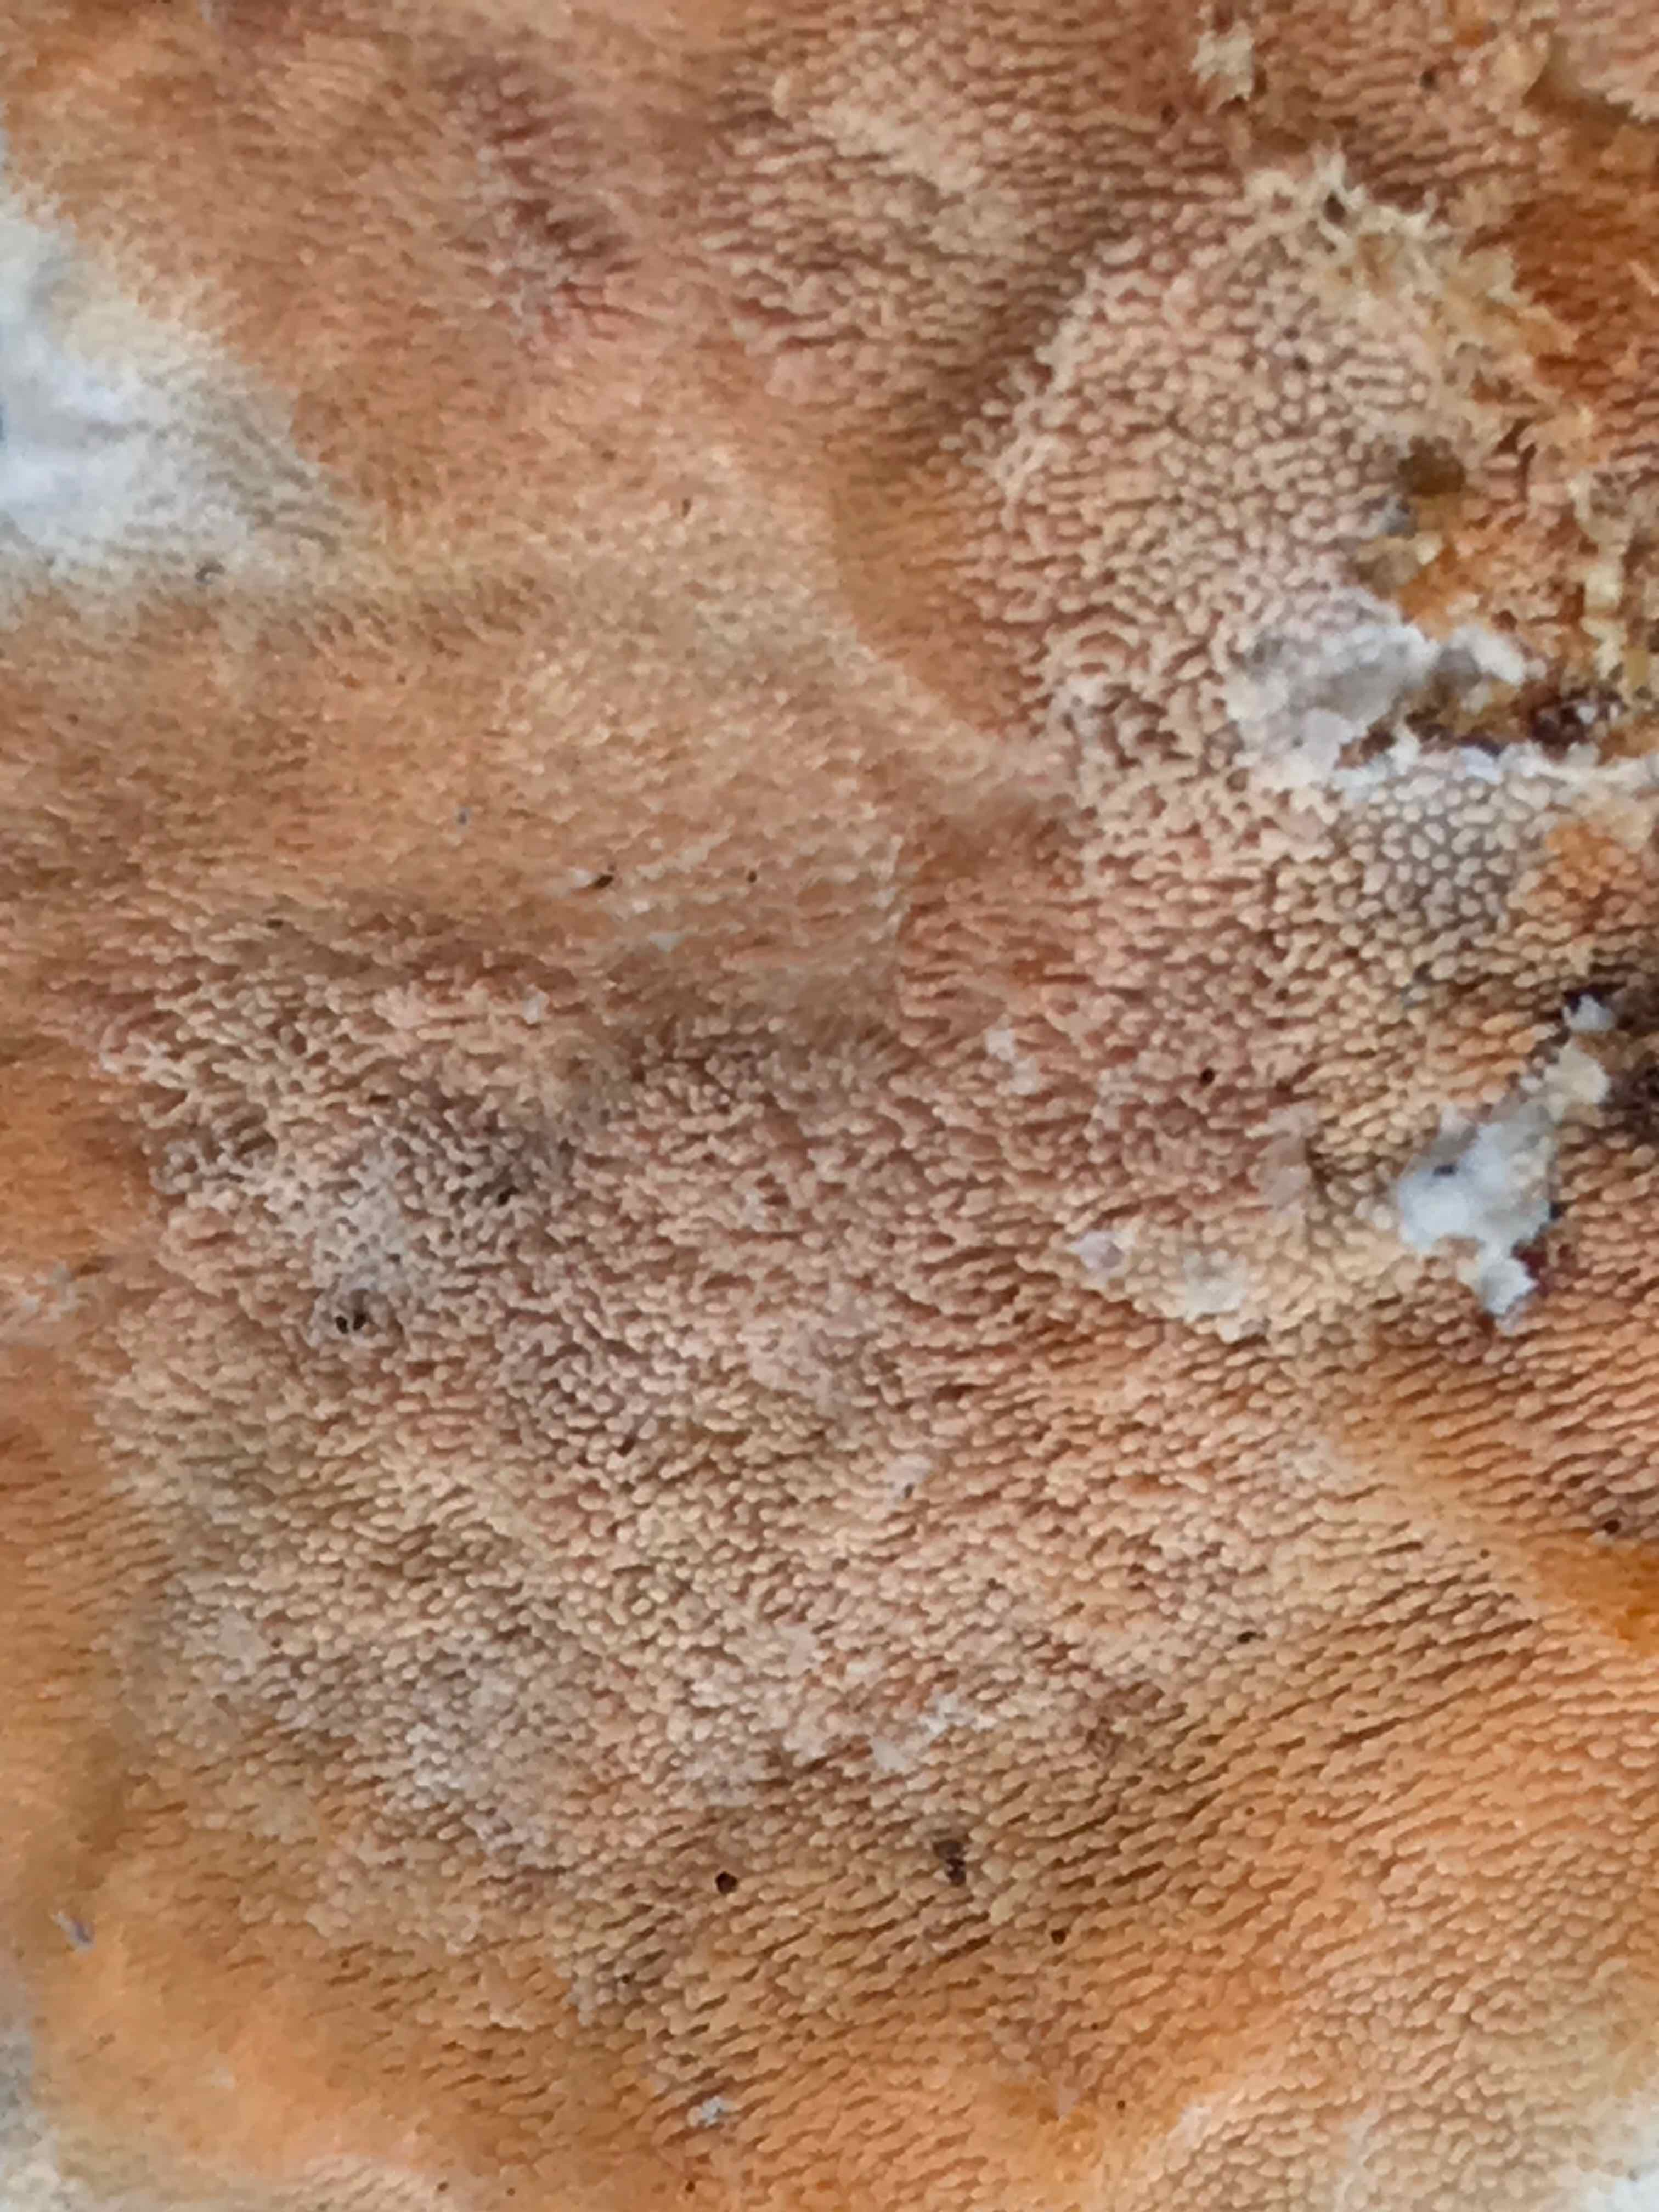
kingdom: Fungi
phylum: Basidiomycota
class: Agaricomycetes
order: Polyporales
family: Steccherinaceae
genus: Steccherinum
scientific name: Steccherinum ochraceum
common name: almindelig skønpig
